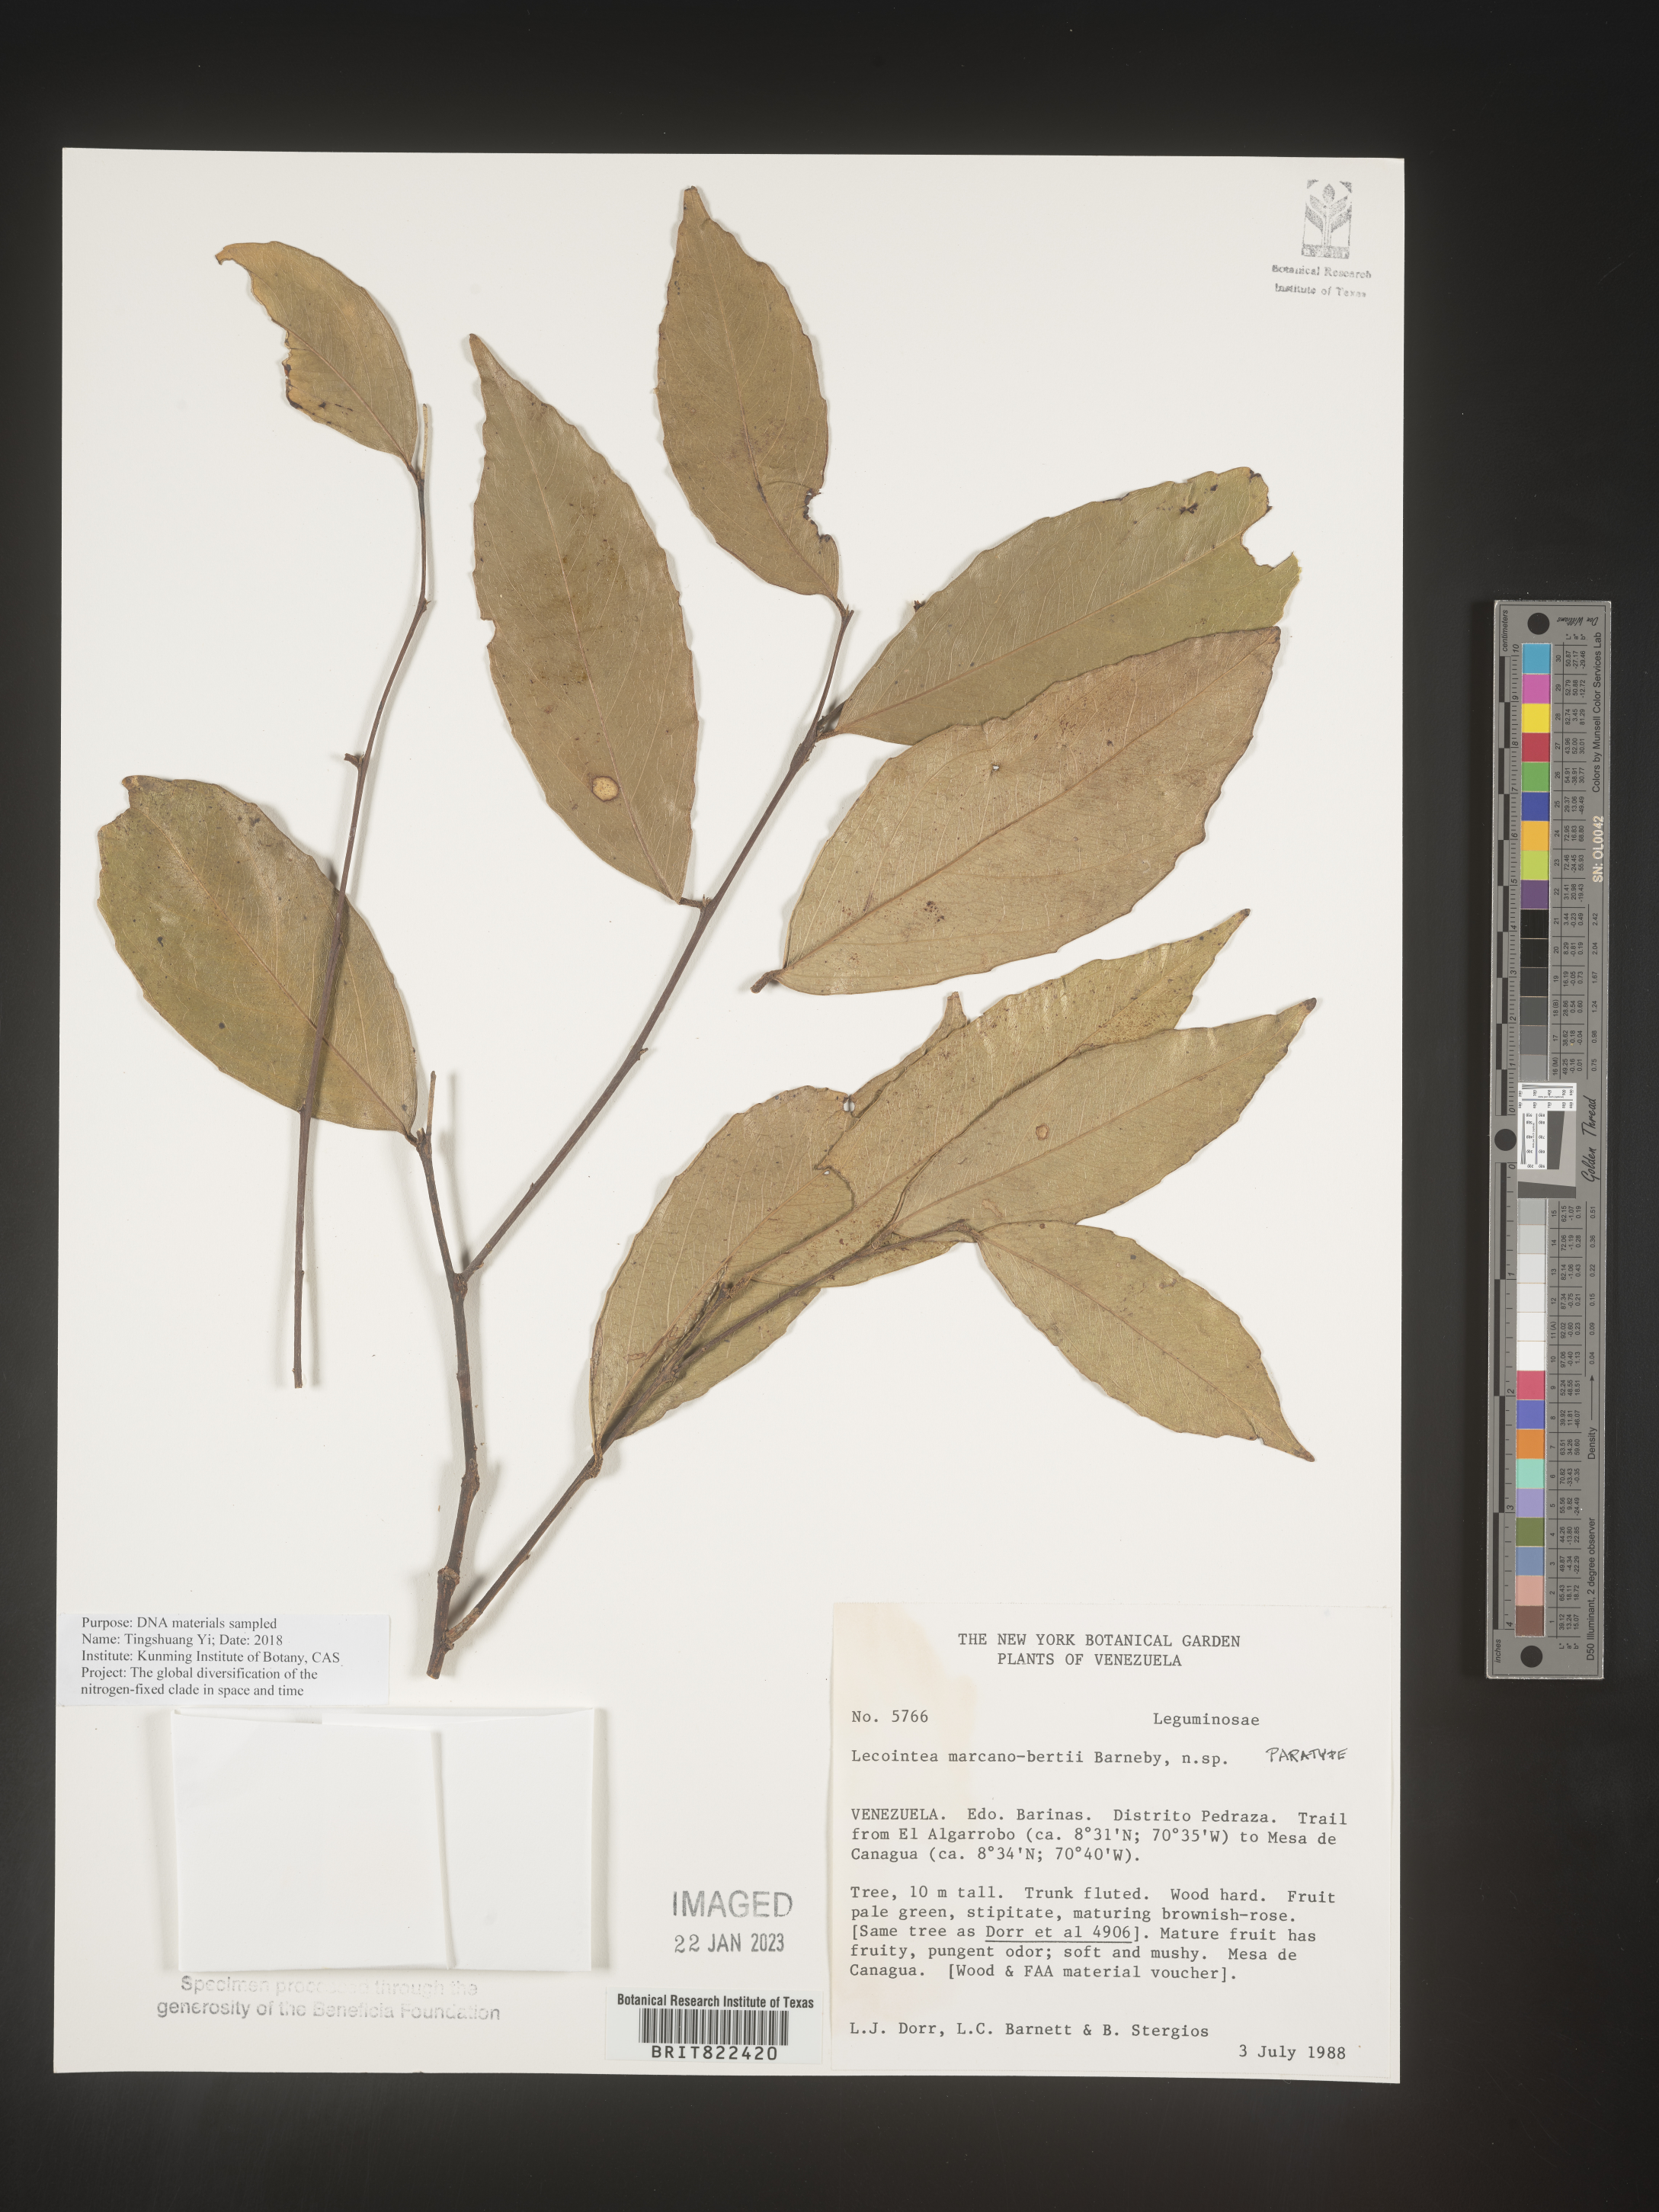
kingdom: Plantae
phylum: Tracheophyta
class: Magnoliopsida
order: Fabales
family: Fabaceae
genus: Lecointea
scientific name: Lecointea
